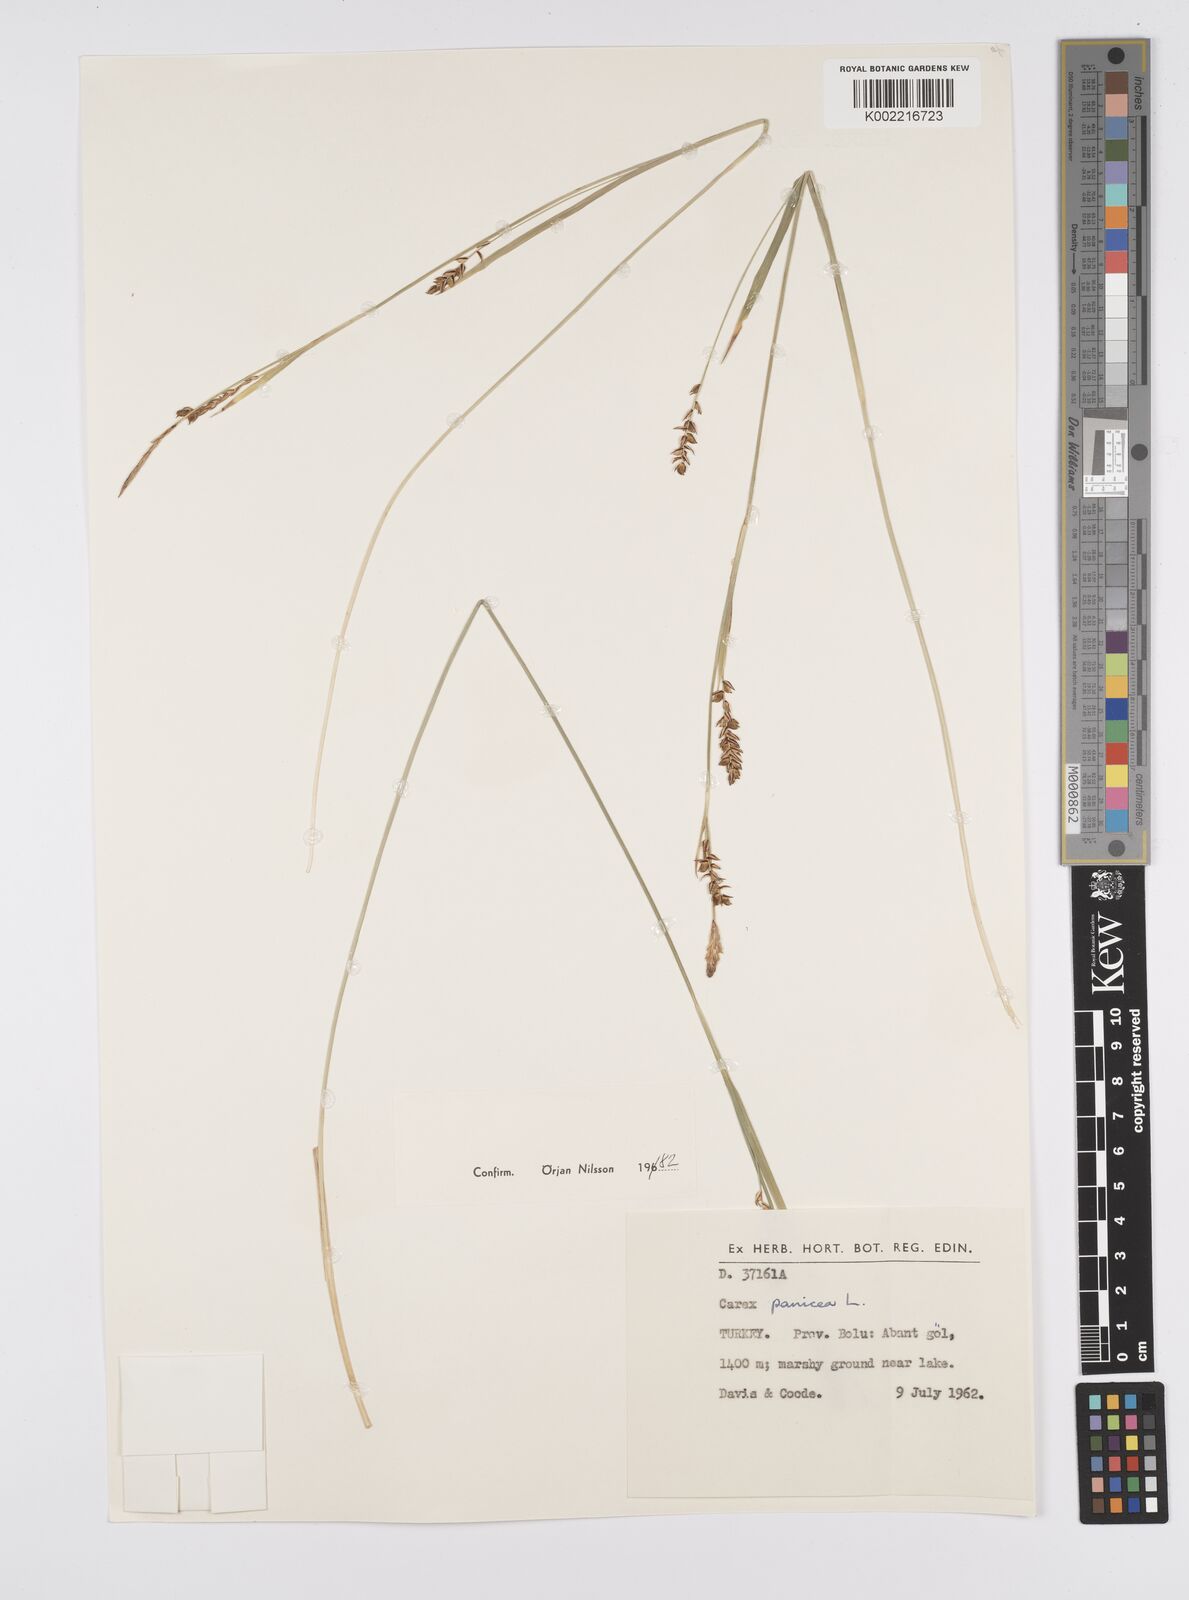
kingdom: Plantae
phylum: Tracheophyta
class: Liliopsida
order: Poales
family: Cyperaceae
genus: Carex
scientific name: Carex panicea
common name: Carnation sedge
